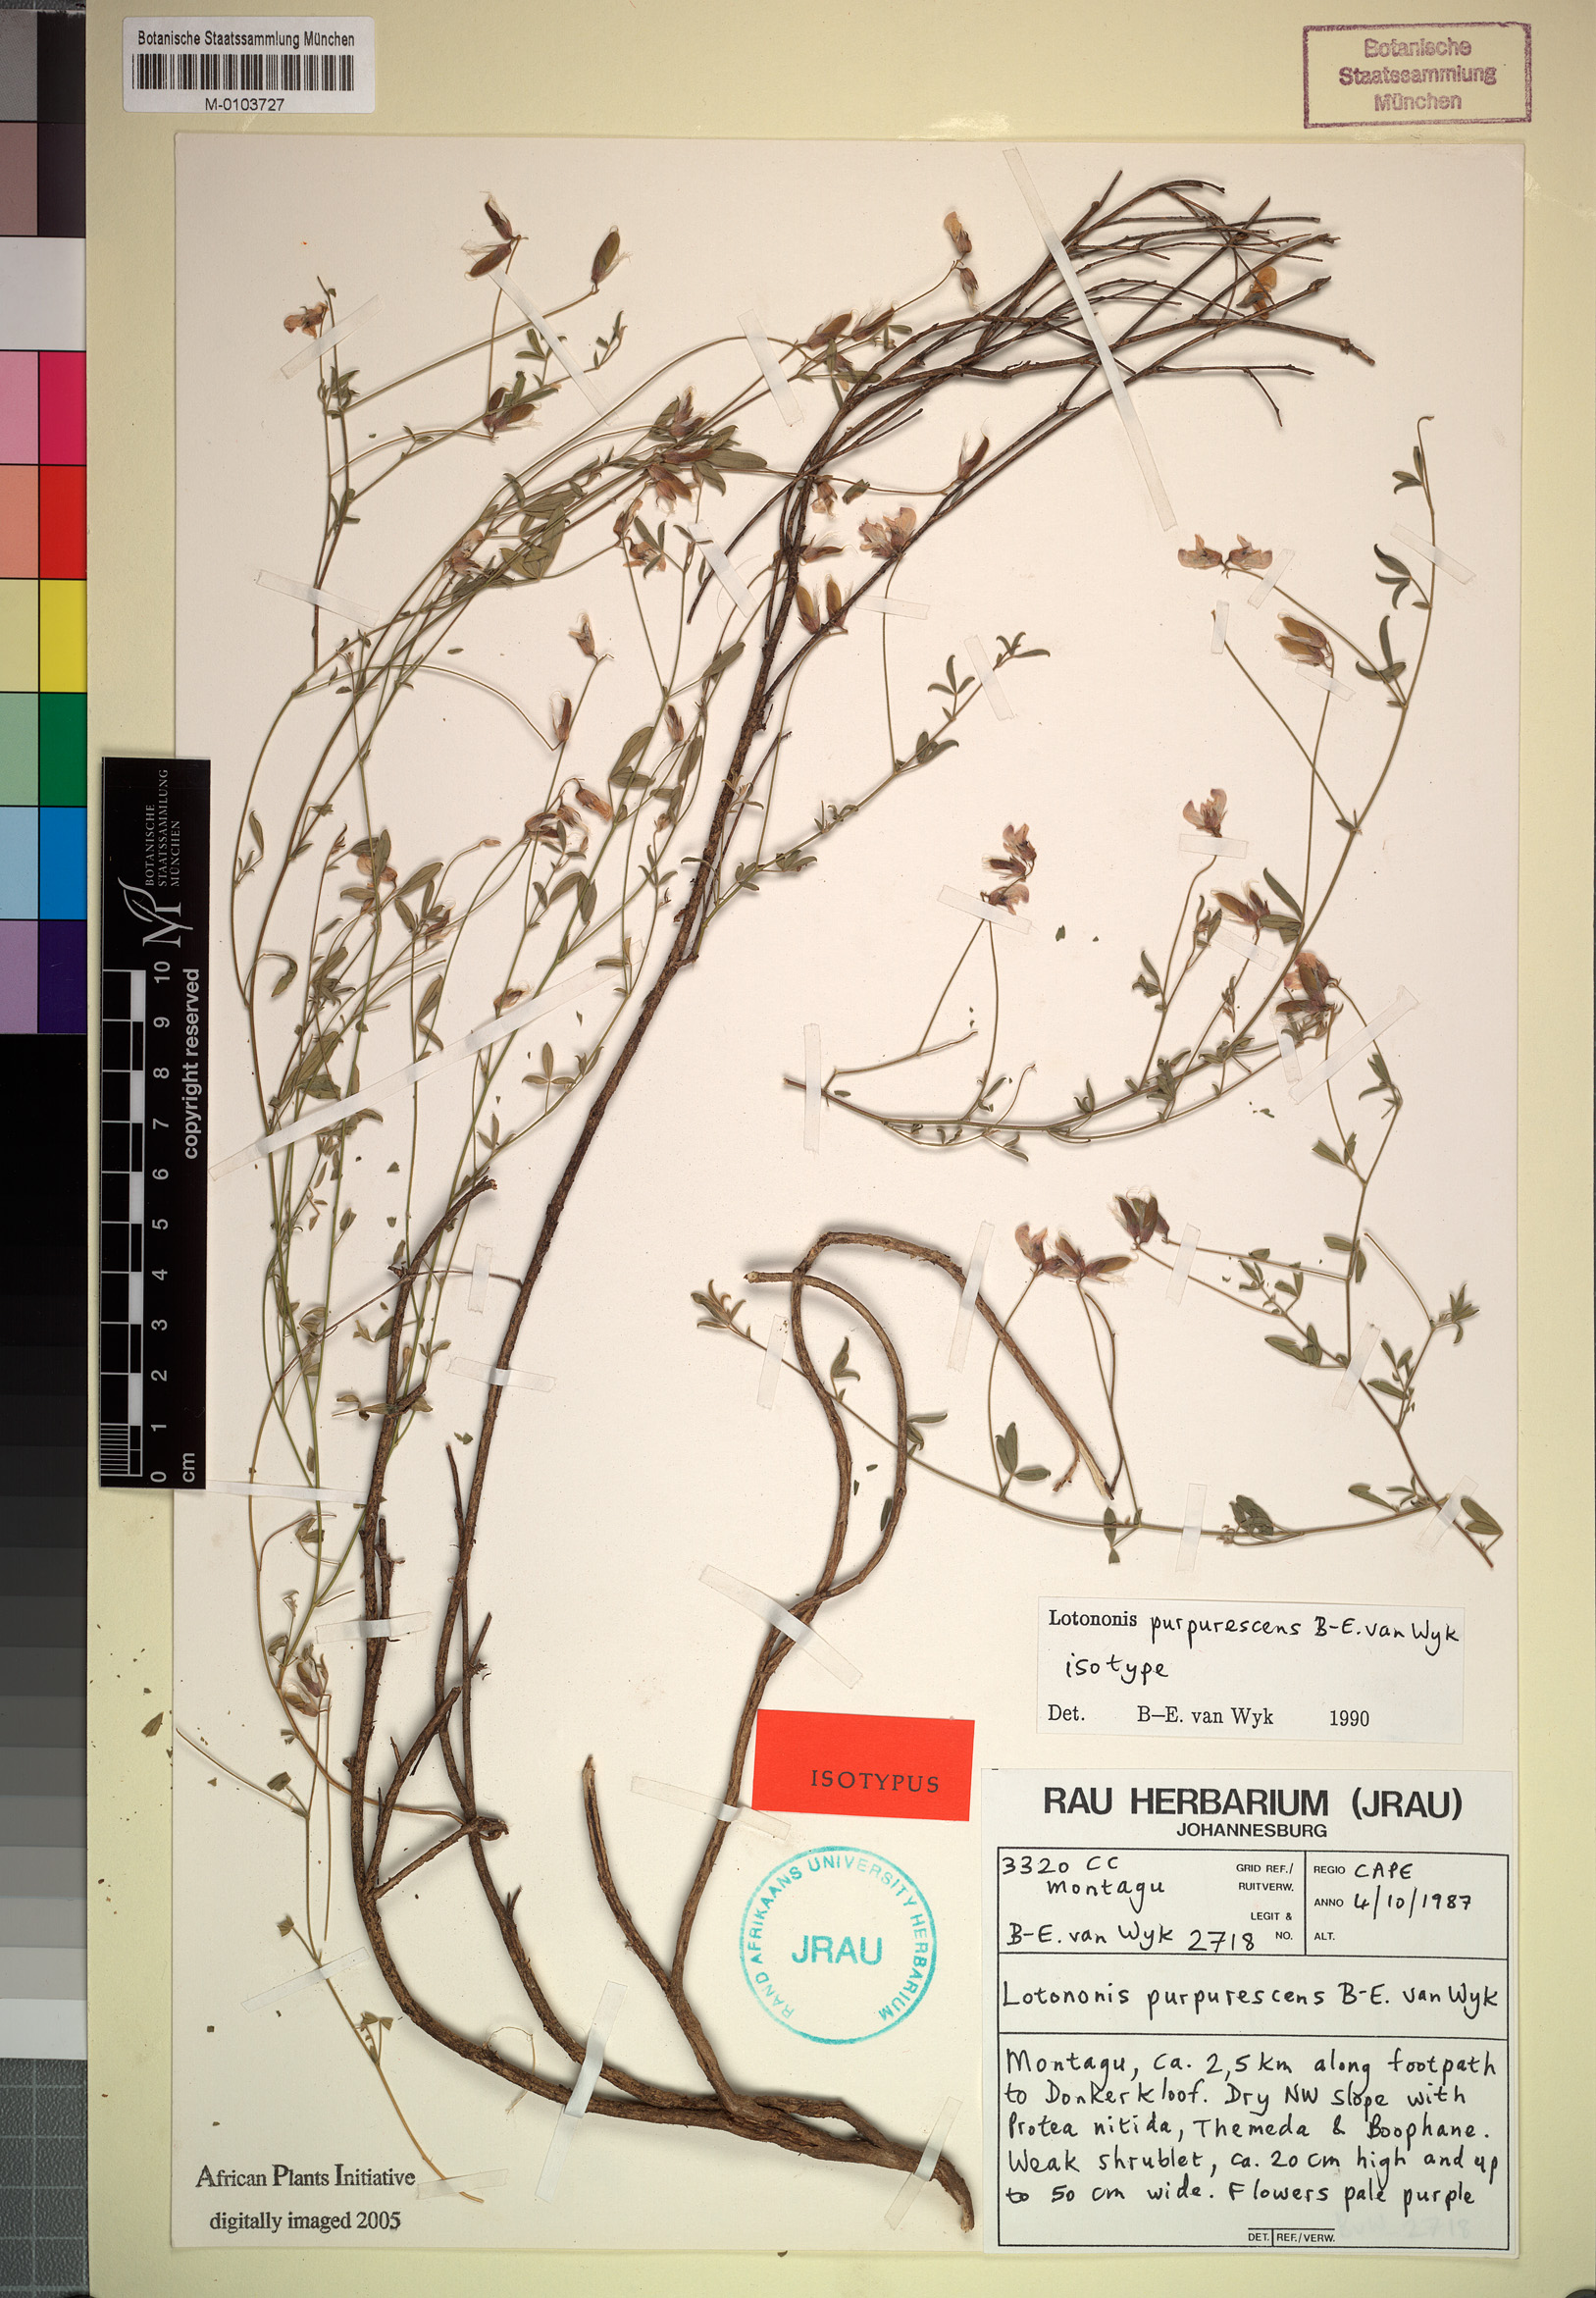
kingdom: Plantae
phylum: Tracheophyta
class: Magnoliopsida
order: Fabales
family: Fabaceae
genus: Lotononis
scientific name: Lotononis purpurescens
